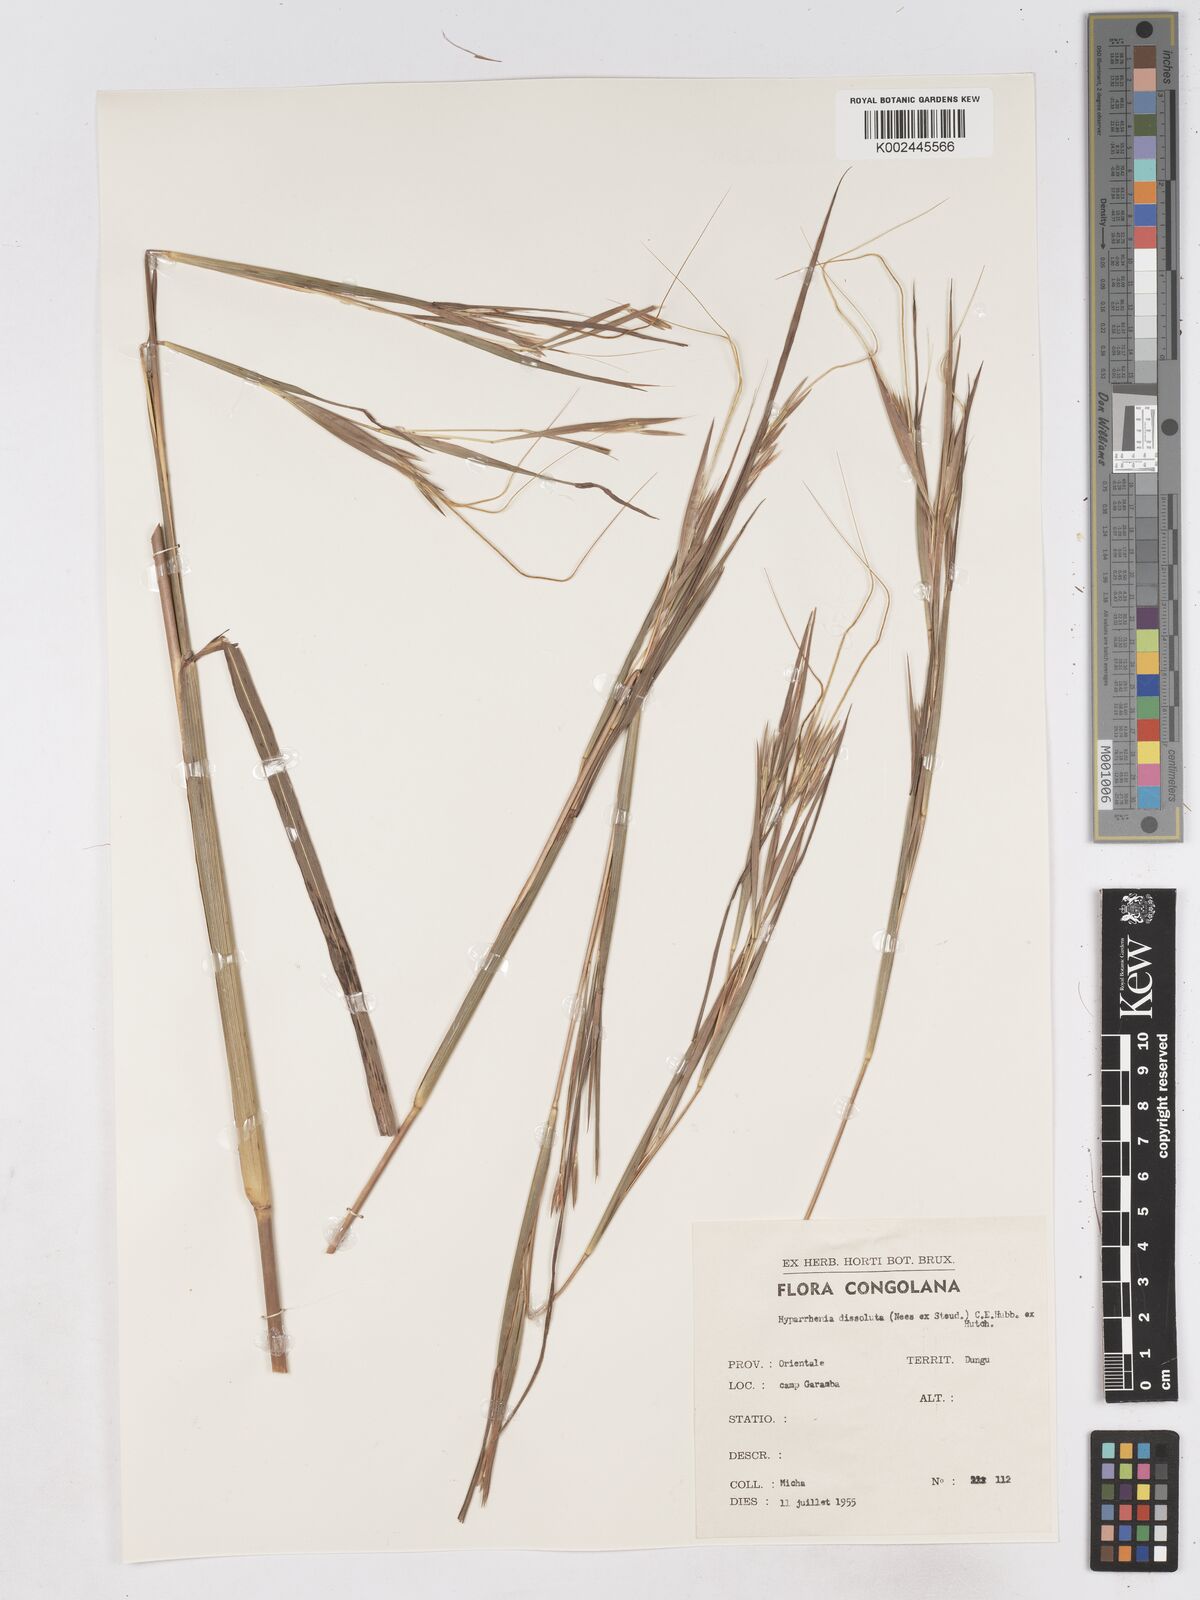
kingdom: Plantae
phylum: Tracheophyta
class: Liliopsida
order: Poales
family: Poaceae
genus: Hyperthelia
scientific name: Hyperthelia dissoluta
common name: Yellow thatching grass
